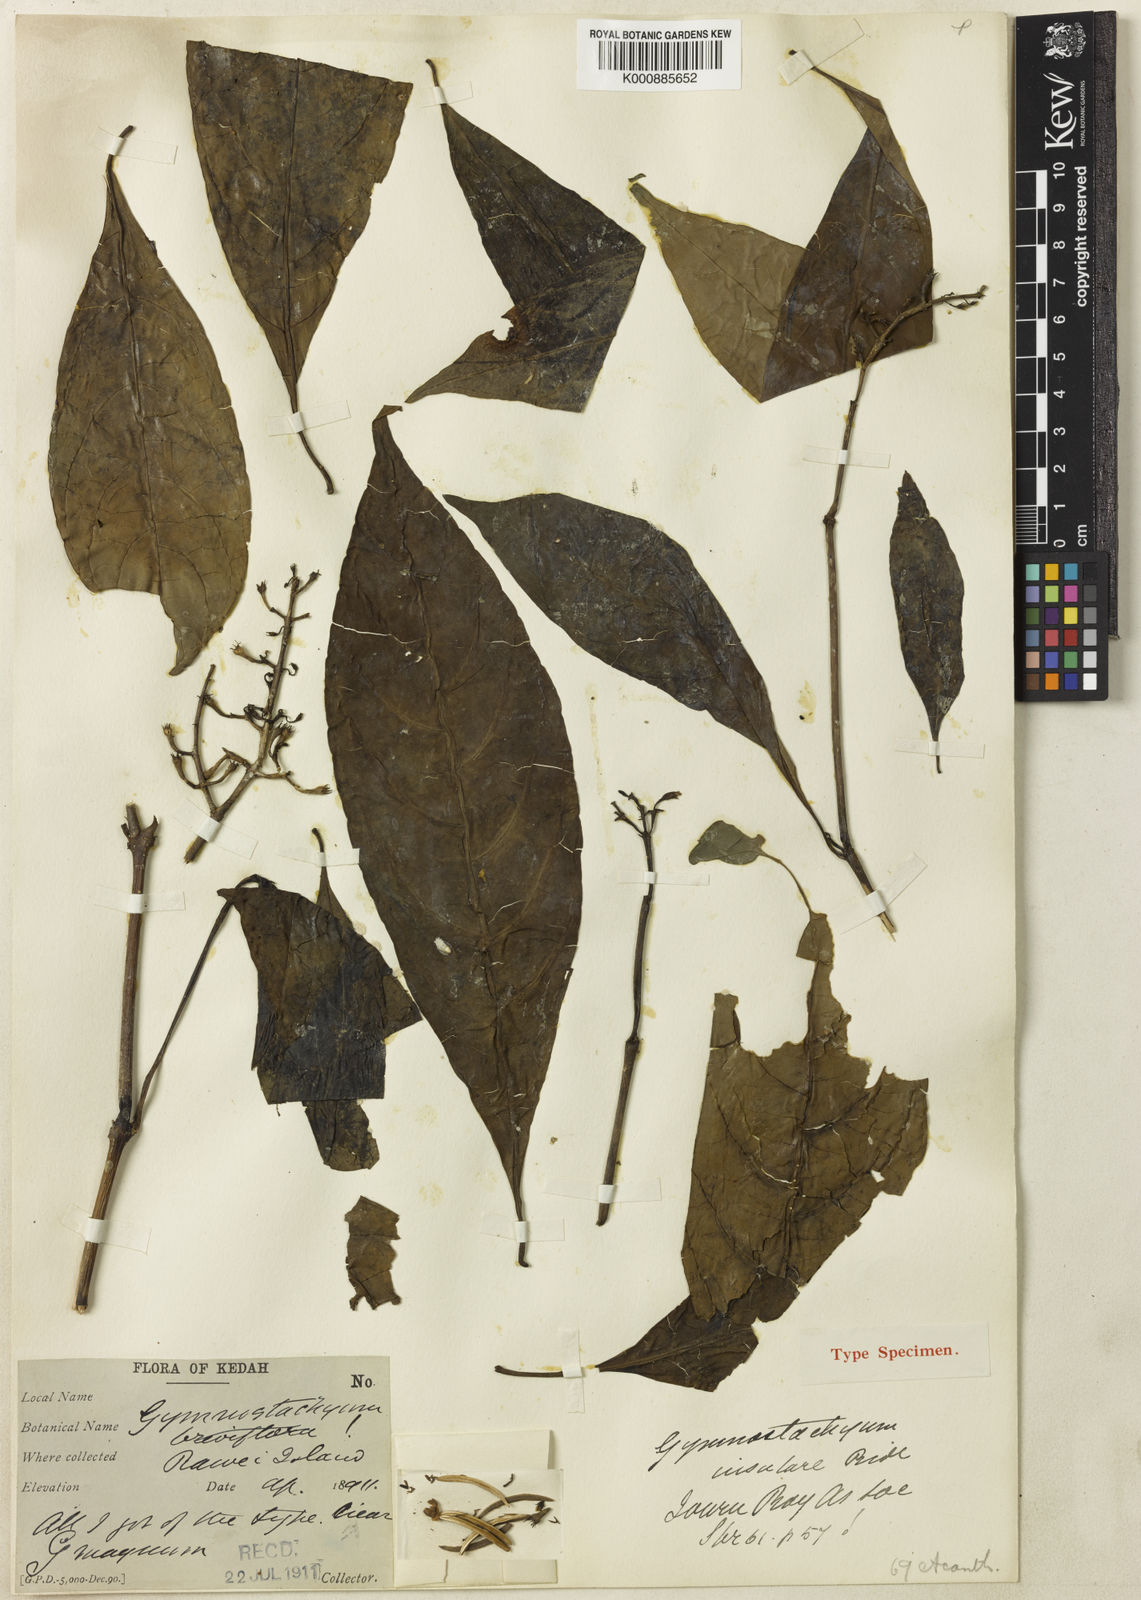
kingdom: Plantae
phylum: Tracheophyta
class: Magnoliopsida
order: Lamiales
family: Acanthaceae
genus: Gymnostachyum
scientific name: Gymnostachyum insulare
